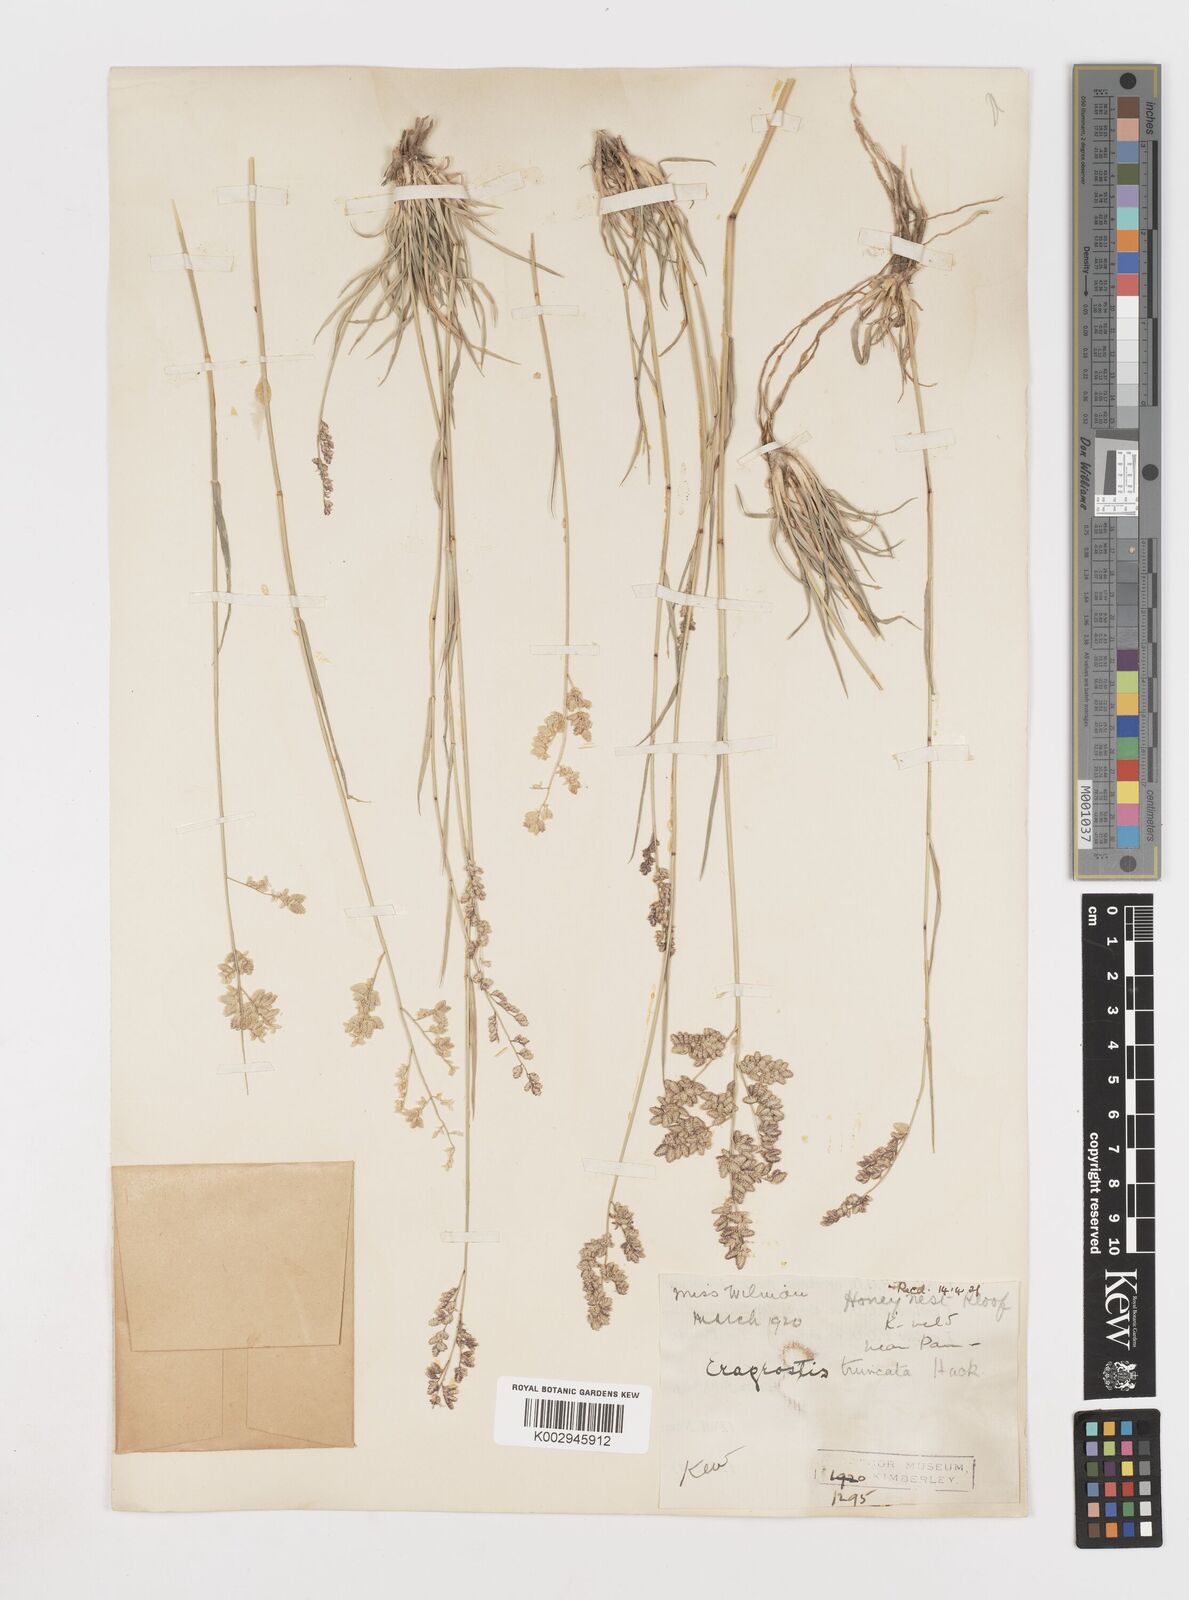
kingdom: Plantae
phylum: Tracheophyta
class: Liliopsida
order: Poales
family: Poaceae
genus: Eragrostis
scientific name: Eragrostis truncata
